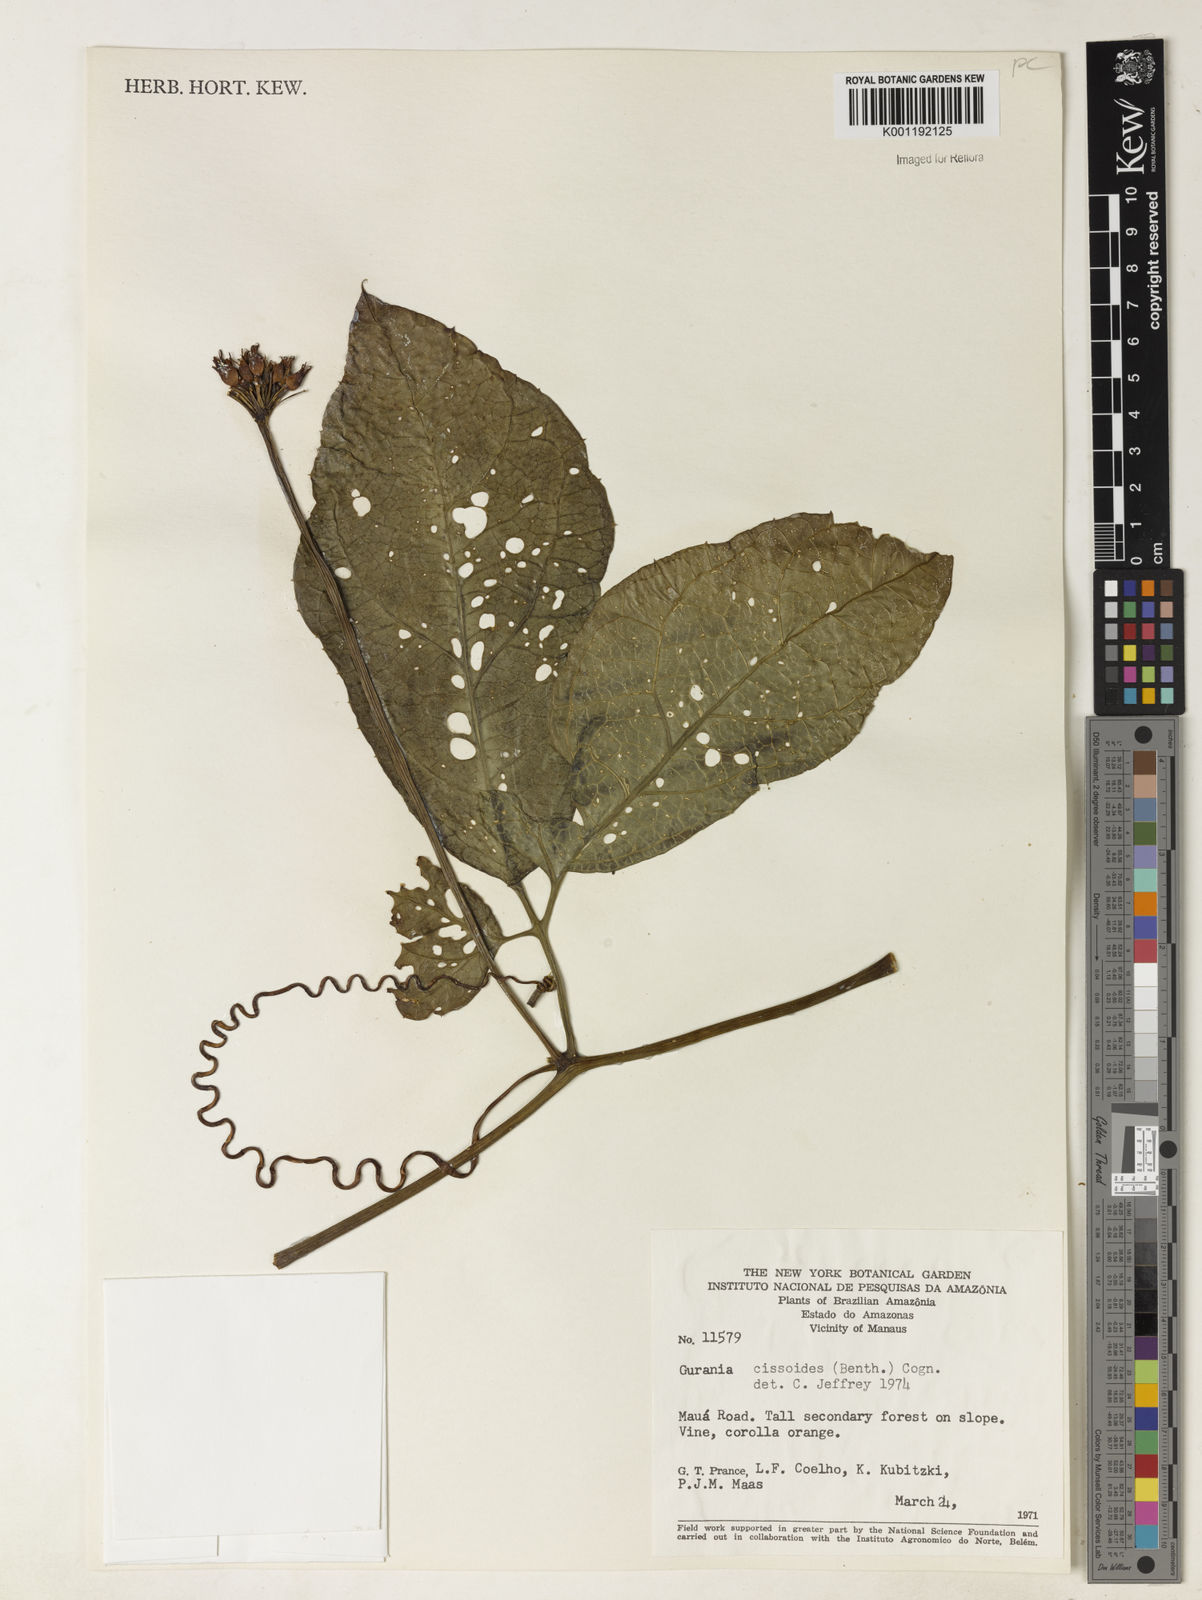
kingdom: Plantae
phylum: Tracheophyta
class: Magnoliopsida
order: Cucurbitales
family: Cucurbitaceae
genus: Gurania
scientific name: Gurania bignoniacea
